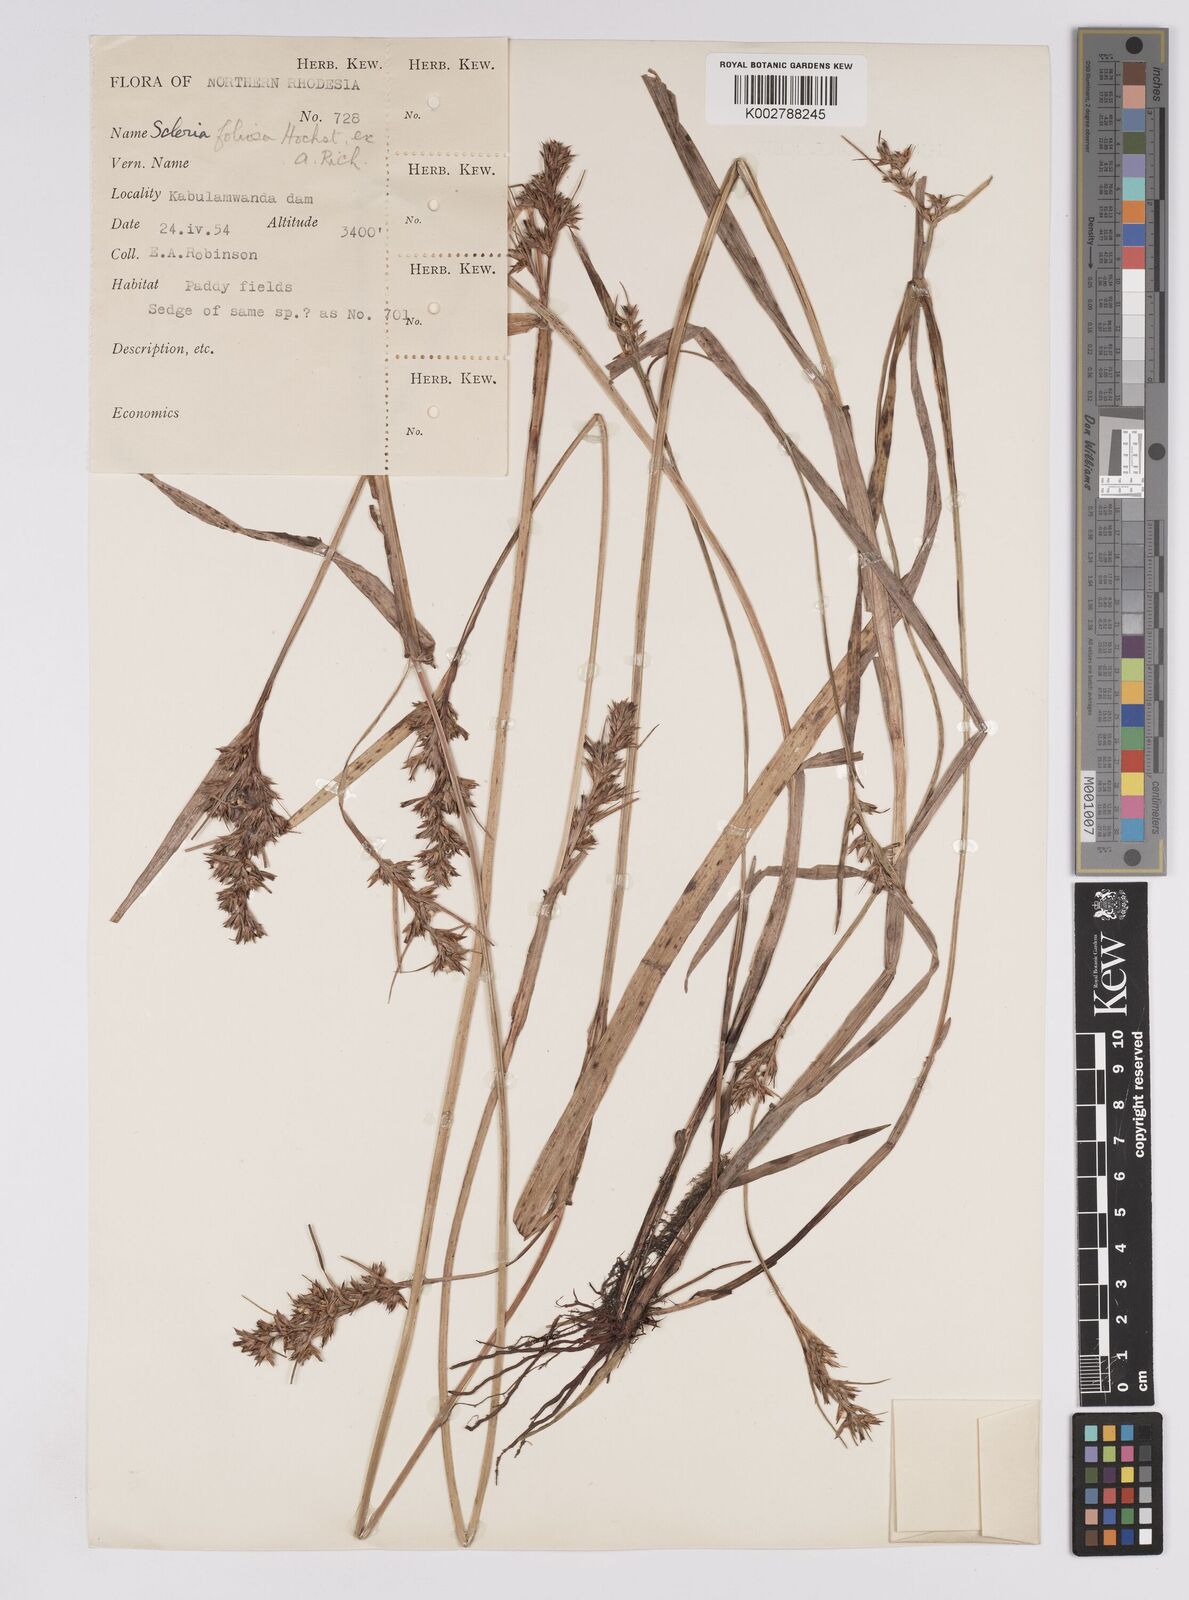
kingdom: Plantae
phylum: Tracheophyta
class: Liliopsida
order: Poales
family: Cyperaceae
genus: Scleria
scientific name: Scleria foliosa
